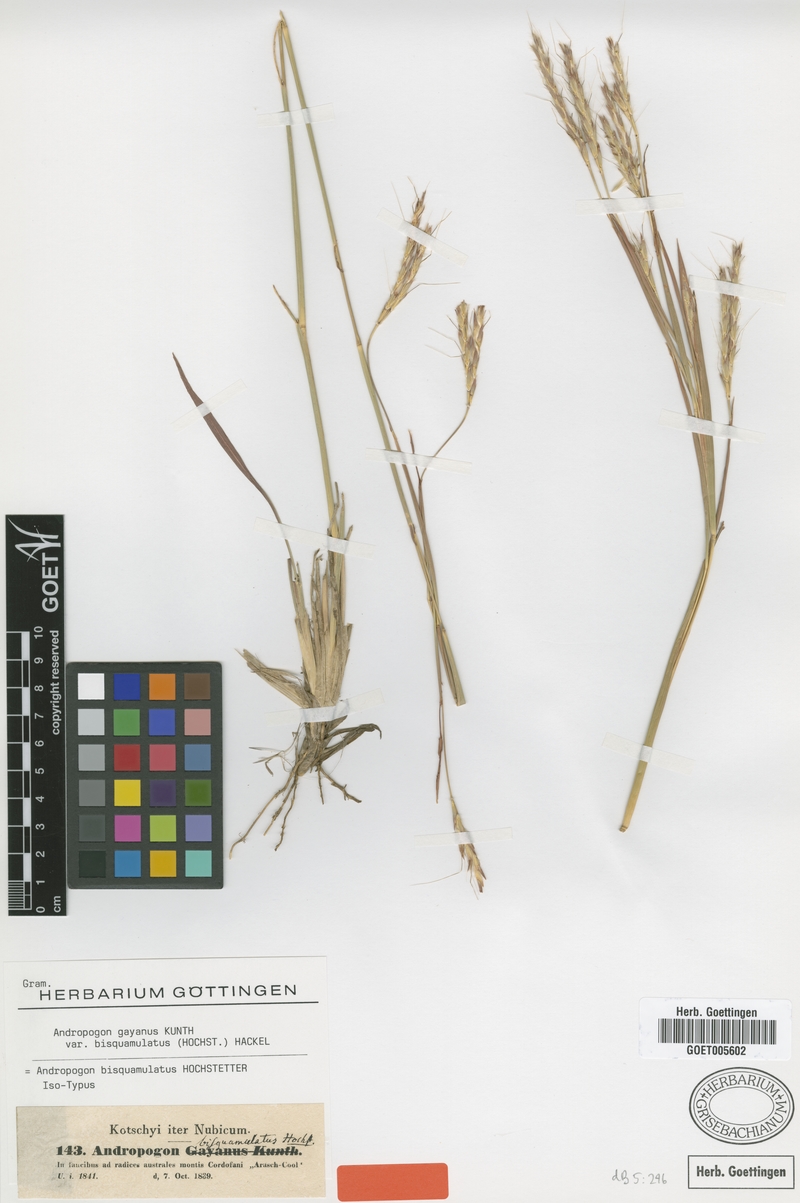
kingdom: Plantae
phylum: Tracheophyta
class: Liliopsida
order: Poales
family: Poaceae
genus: Andropogon
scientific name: Andropogon gayanus
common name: Tambuki grass
